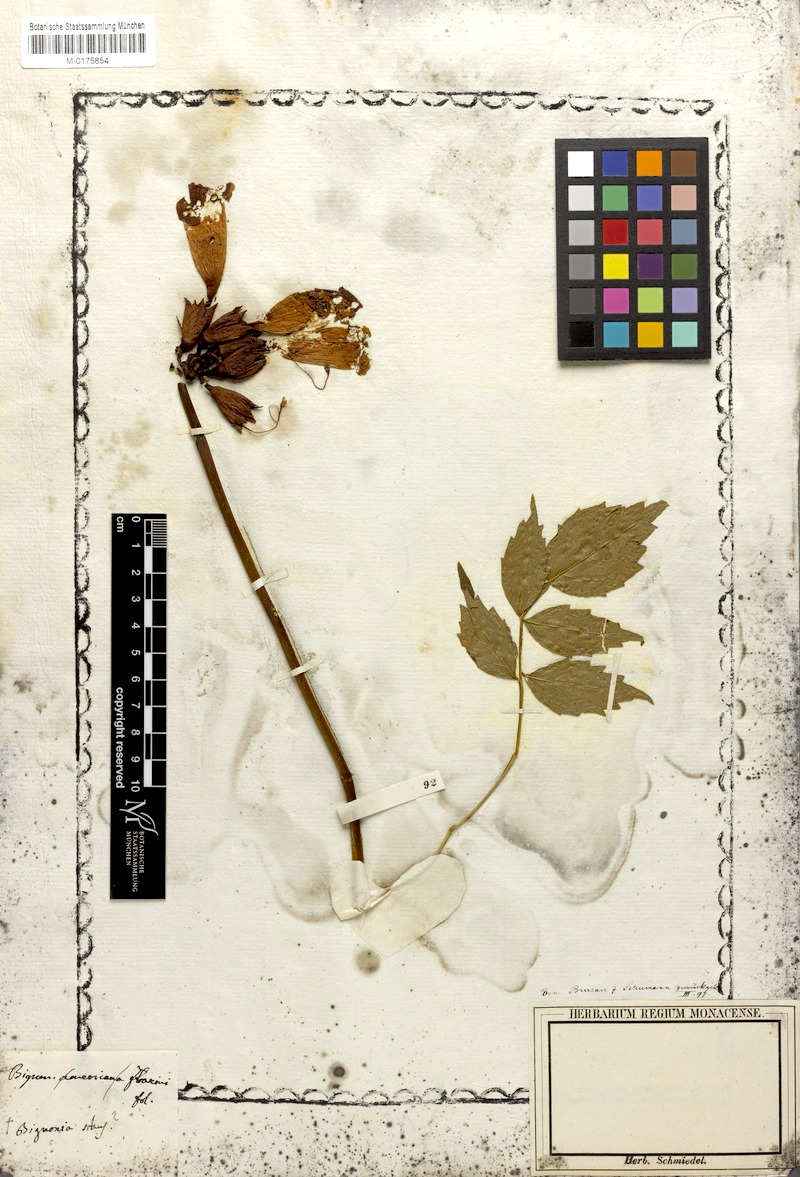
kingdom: Plantae
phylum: Tracheophyta
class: Magnoliopsida
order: Lamiales
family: Bignoniaceae
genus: Campsis
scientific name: Campsis radicans
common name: Trumpet-creeper
